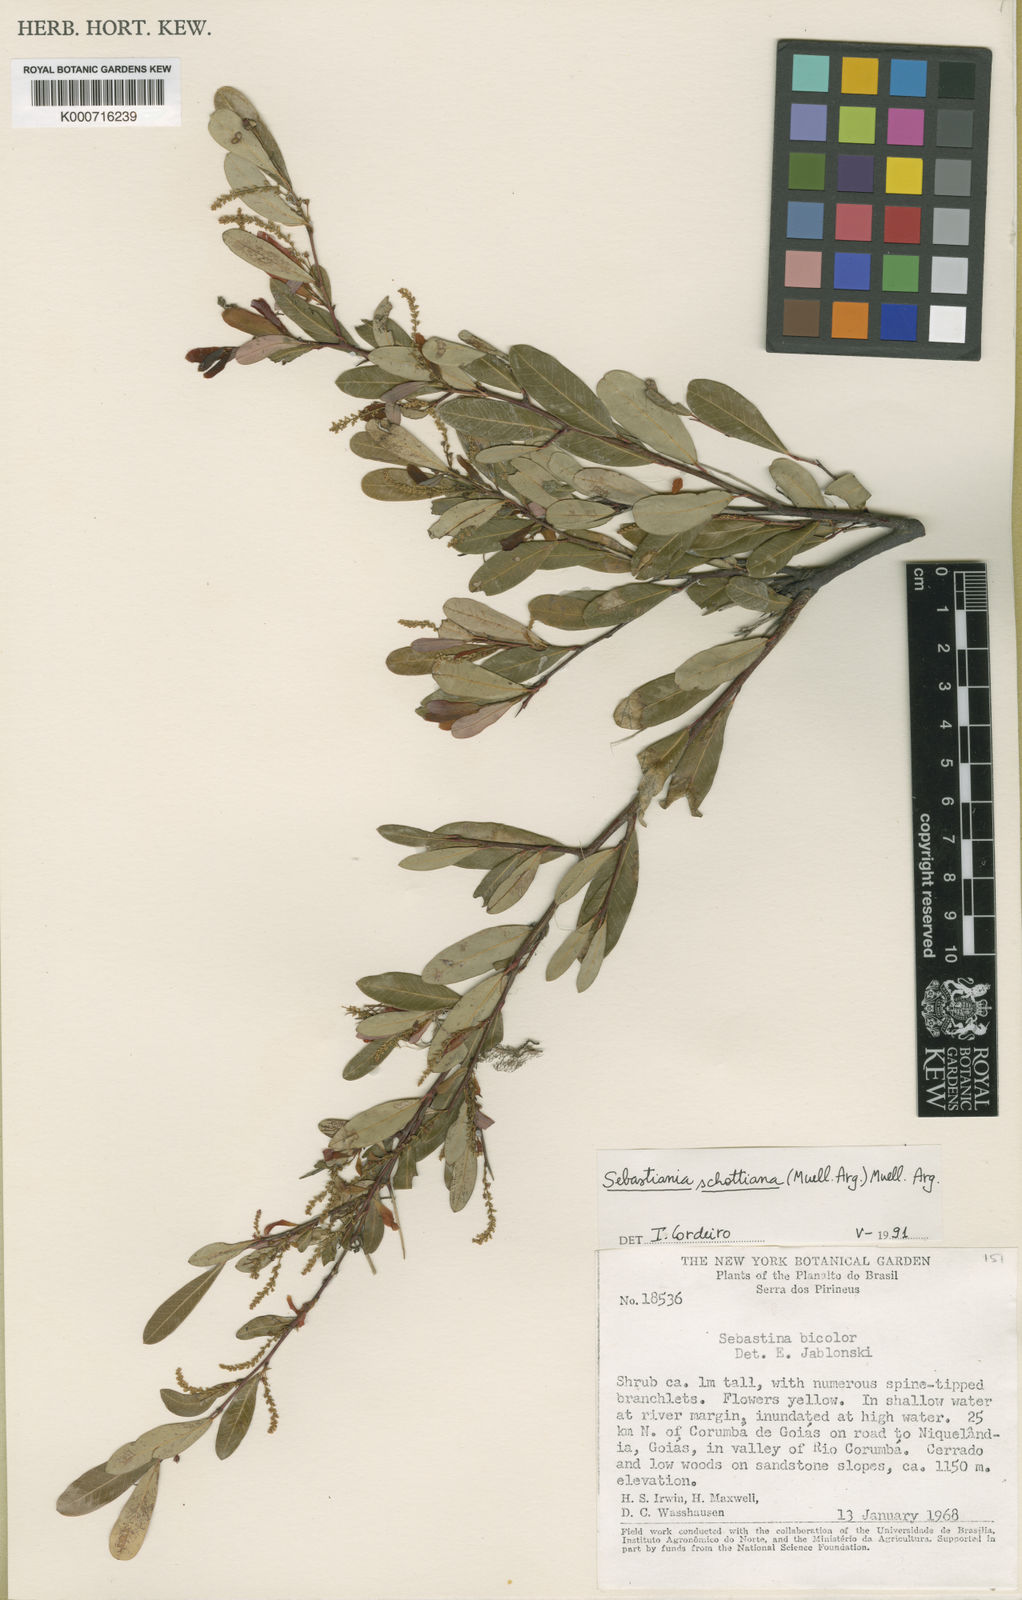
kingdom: Plantae
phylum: Tracheophyta
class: Magnoliopsida
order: Malpighiales
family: Euphorbiaceae
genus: Sebastiania
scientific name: Sebastiania
